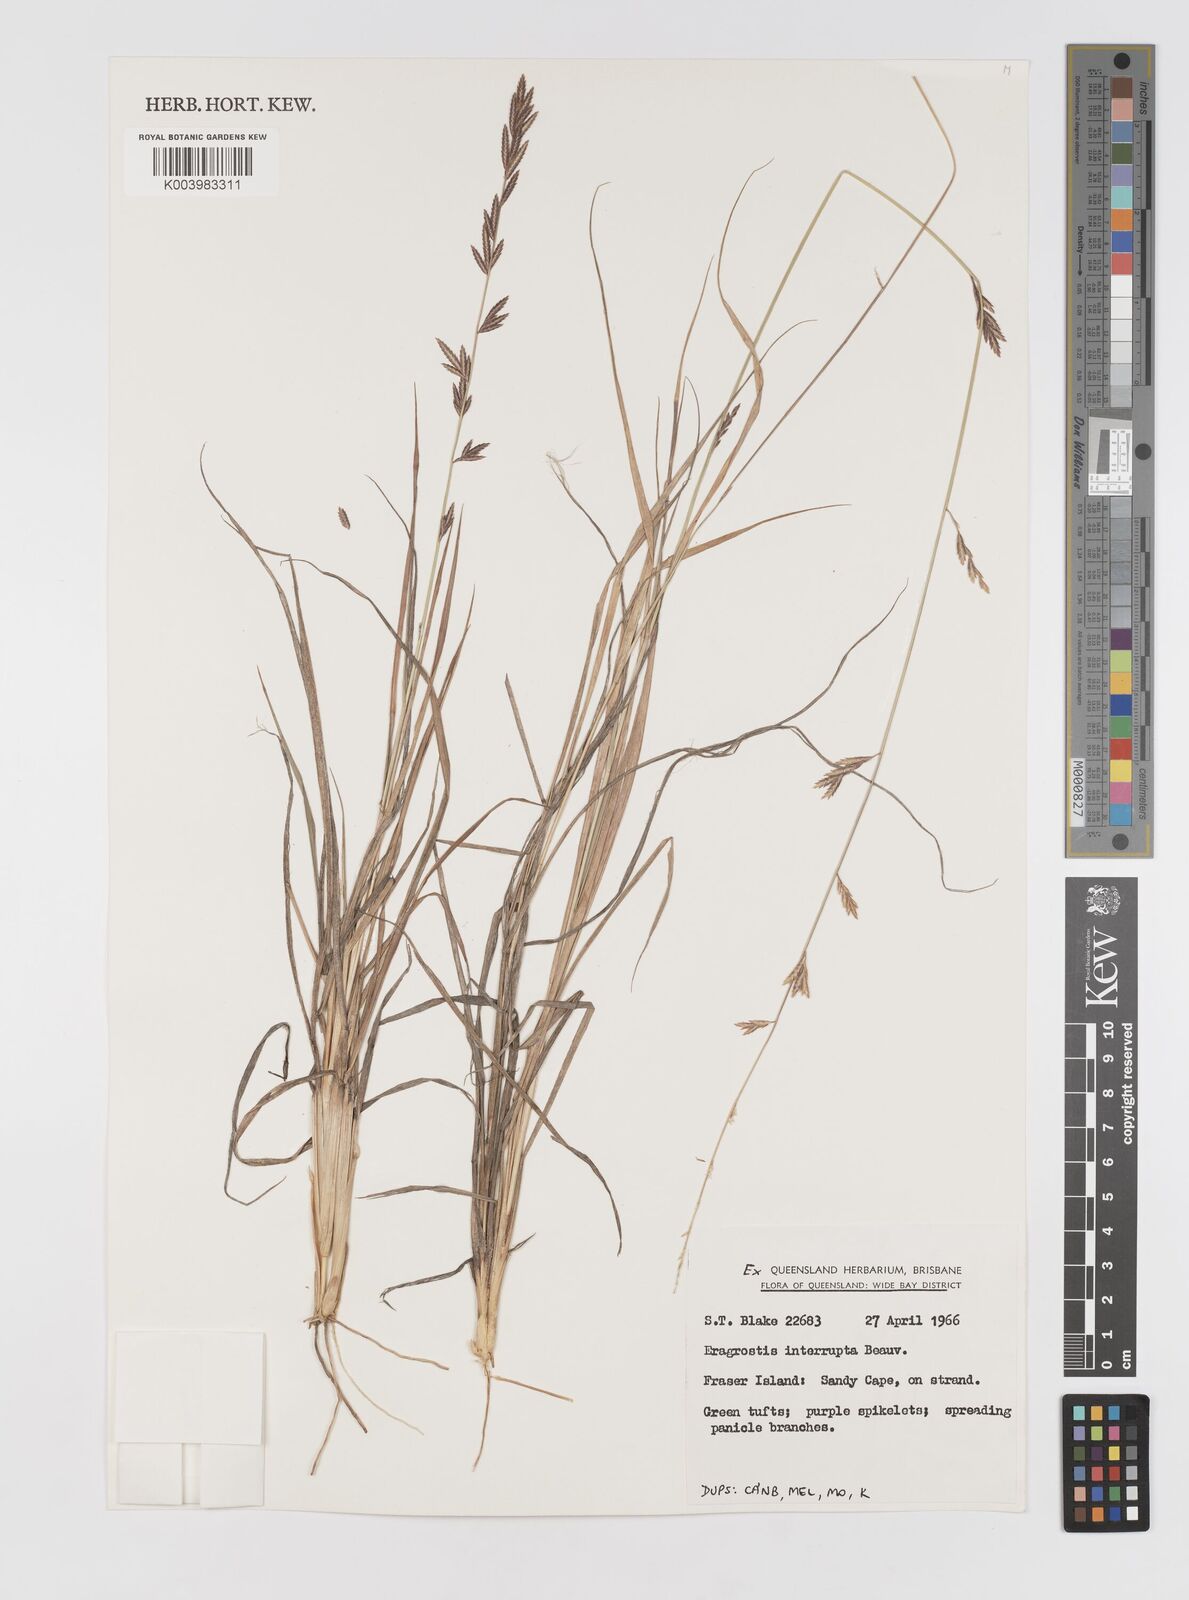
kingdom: Plantae
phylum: Tracheophyta
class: Liliopsida
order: Poales
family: Poaceae
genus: Eragrostis
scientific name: Eragrostis interrupta
